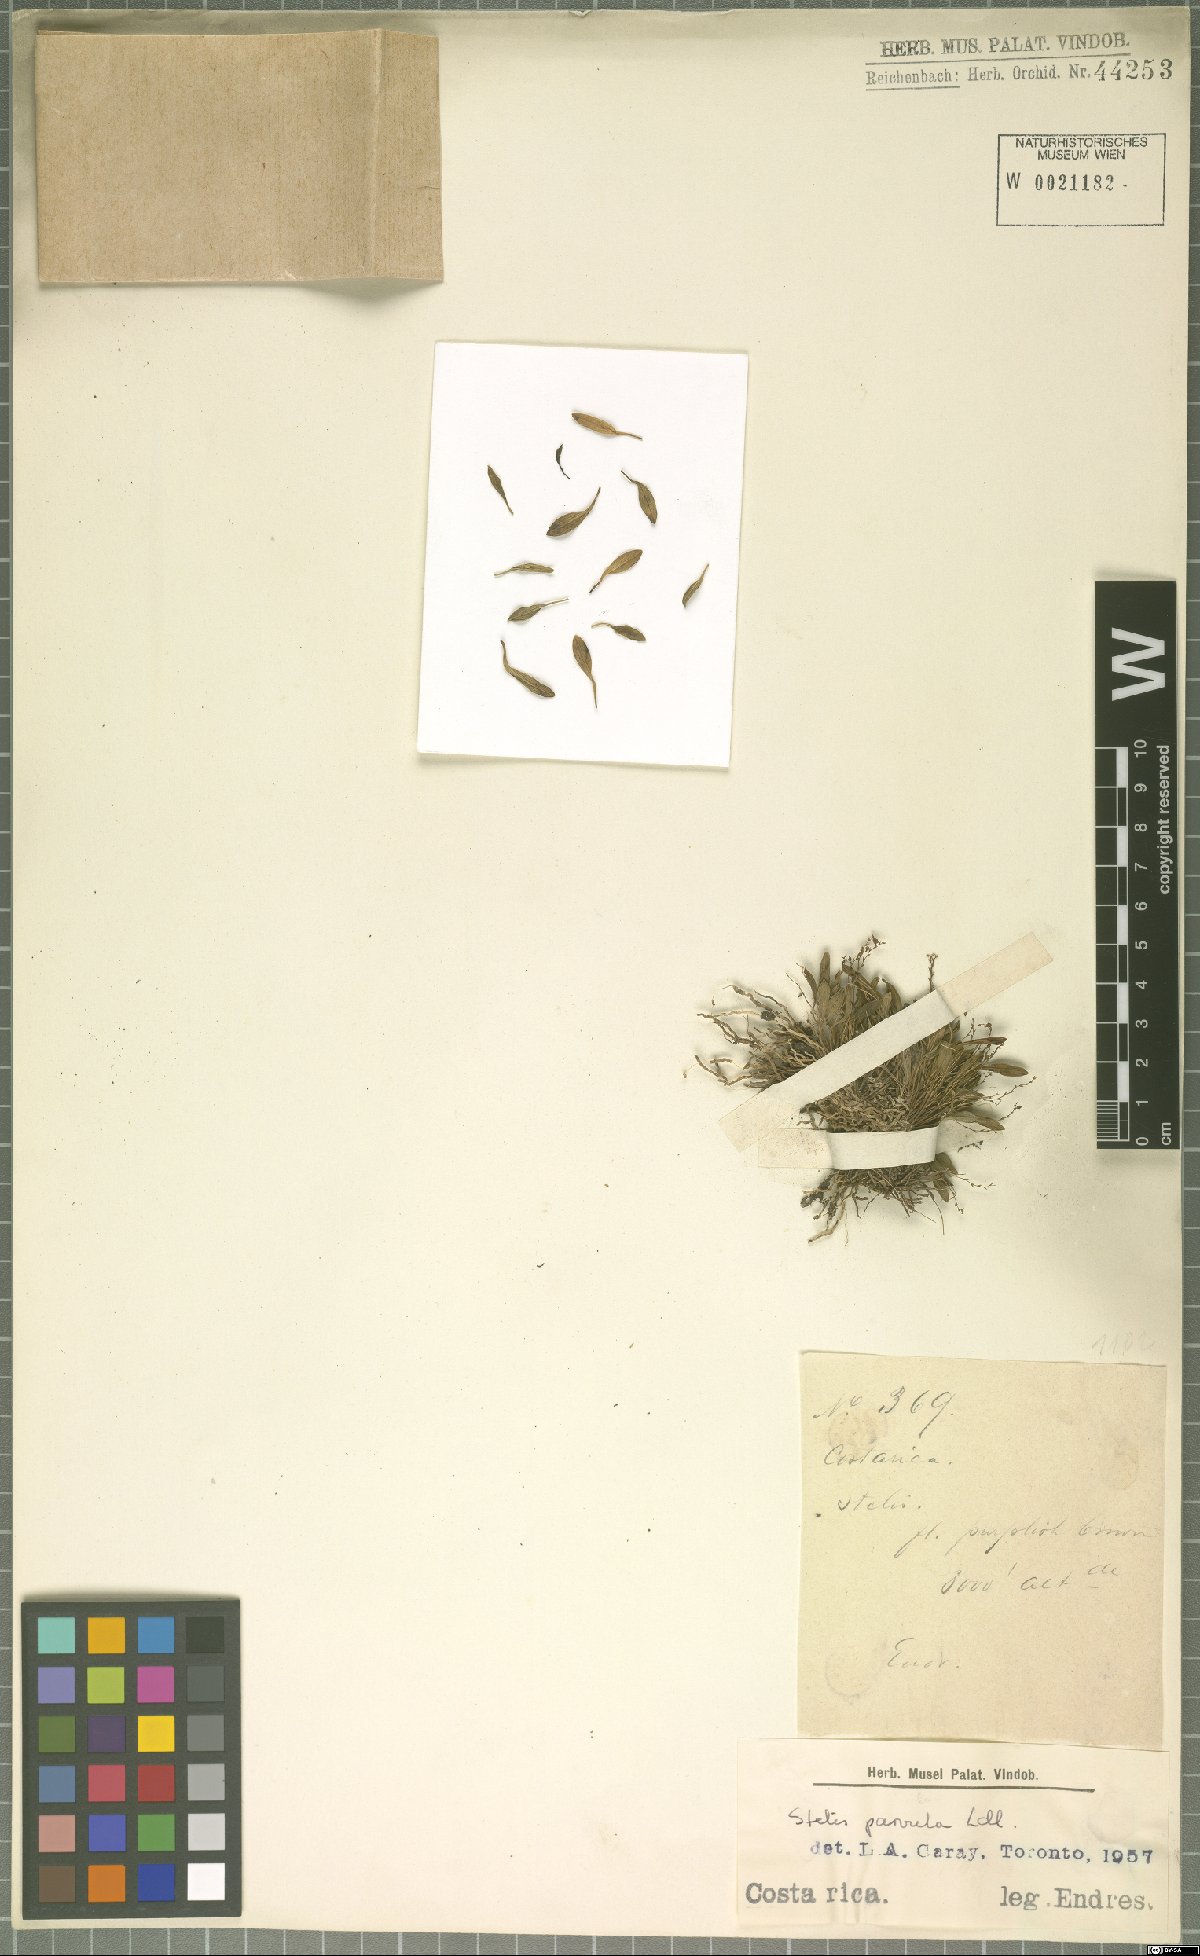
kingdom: Plantae
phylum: Tracheophyta
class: Liliopsida
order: Asparagales
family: Orchidaceae
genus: Stelis
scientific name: Stelis parvula
